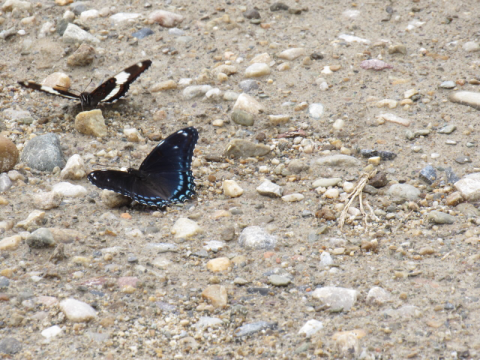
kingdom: Animalia
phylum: Arthropoda
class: Insecta
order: Lepidoptera
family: Nymphalidae
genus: Limenitis
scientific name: Limenitis arthemis
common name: Red-spotted Admiral
